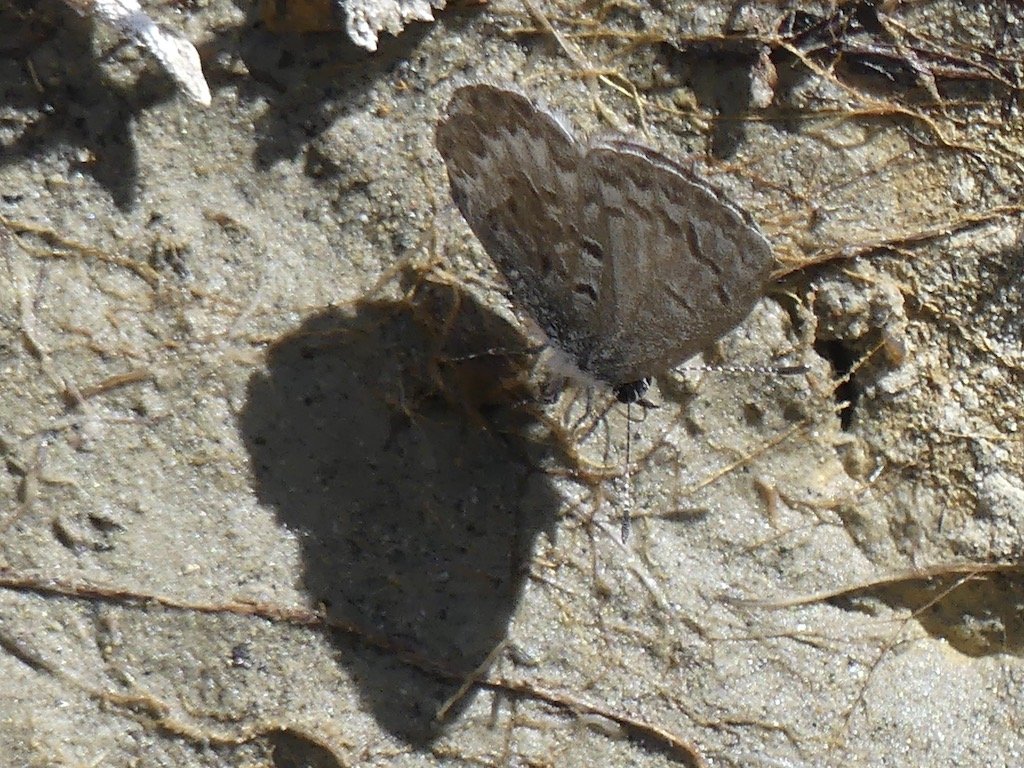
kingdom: Animalia
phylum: Arthropoda
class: Insecta
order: Lepidoptera
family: Lycaenidae
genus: Celastrina
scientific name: Celastrina ladon
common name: Spring Azure
